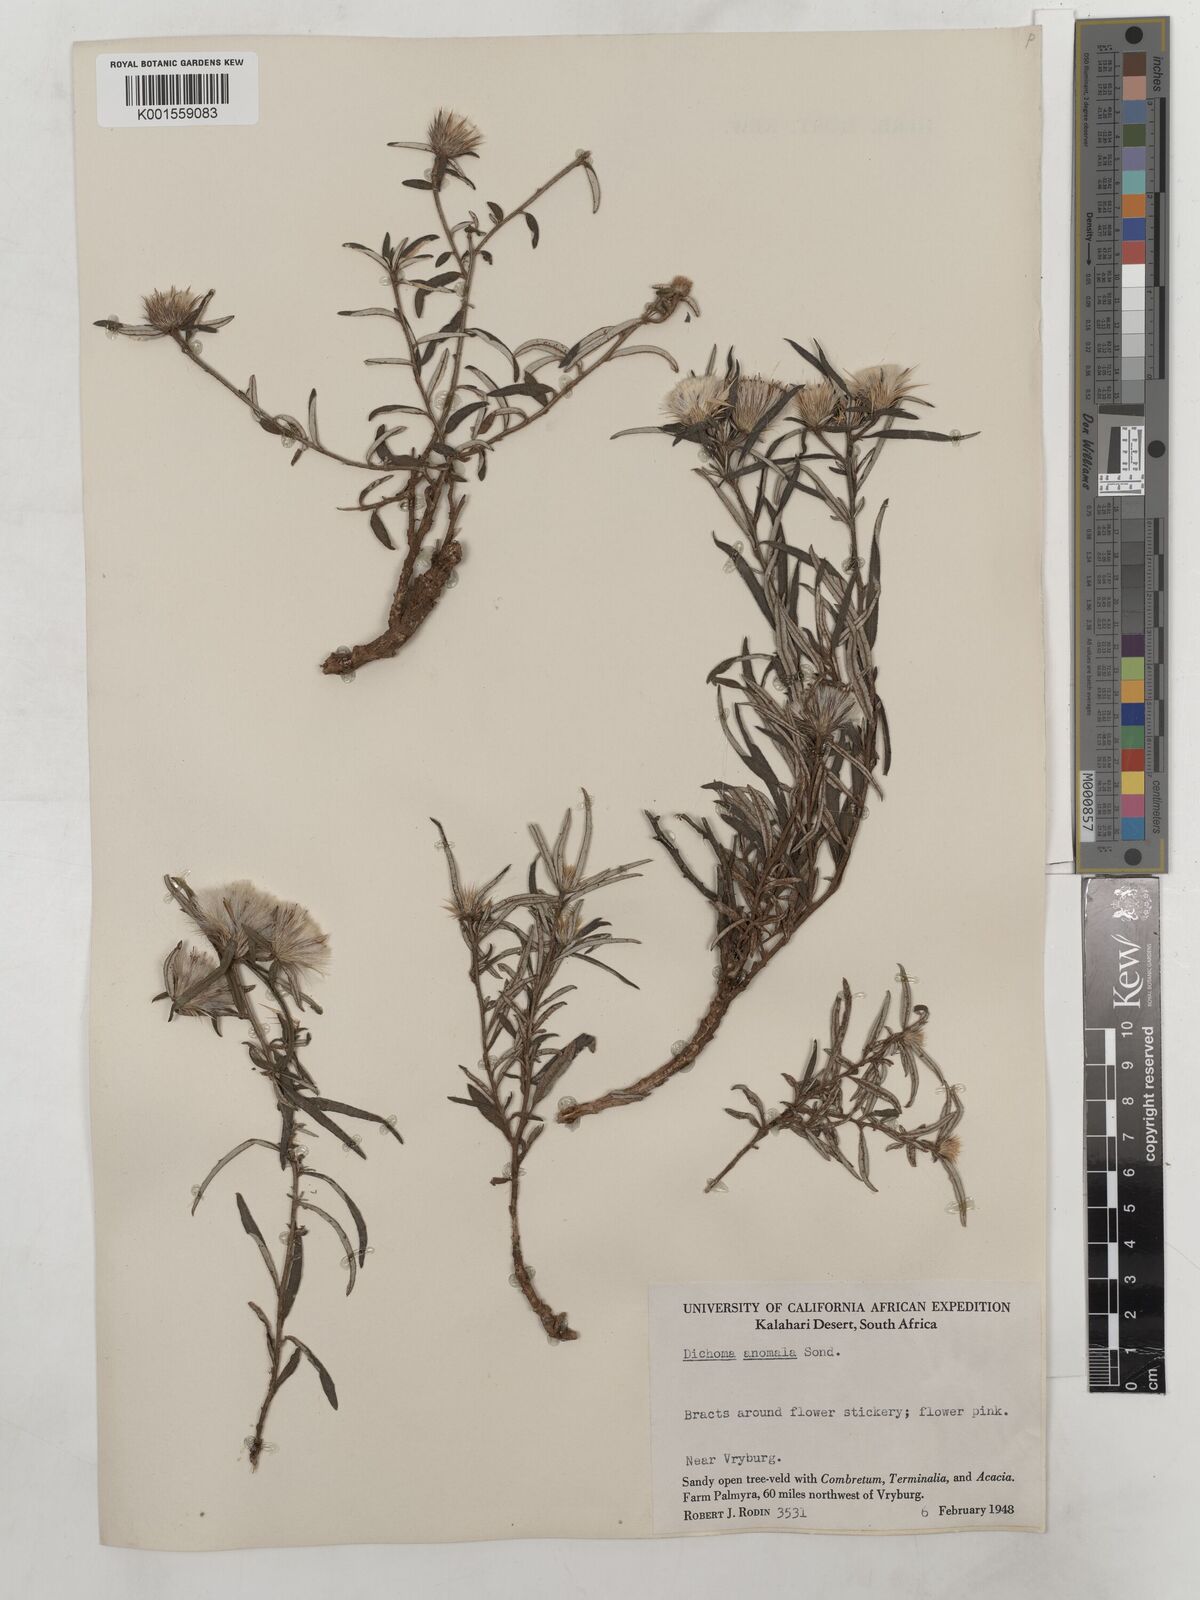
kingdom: Plantae
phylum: Tracheophyta
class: Magnoliopsida
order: Asterales
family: Asteraceae
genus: Dicoma
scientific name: Dicoma anomala
